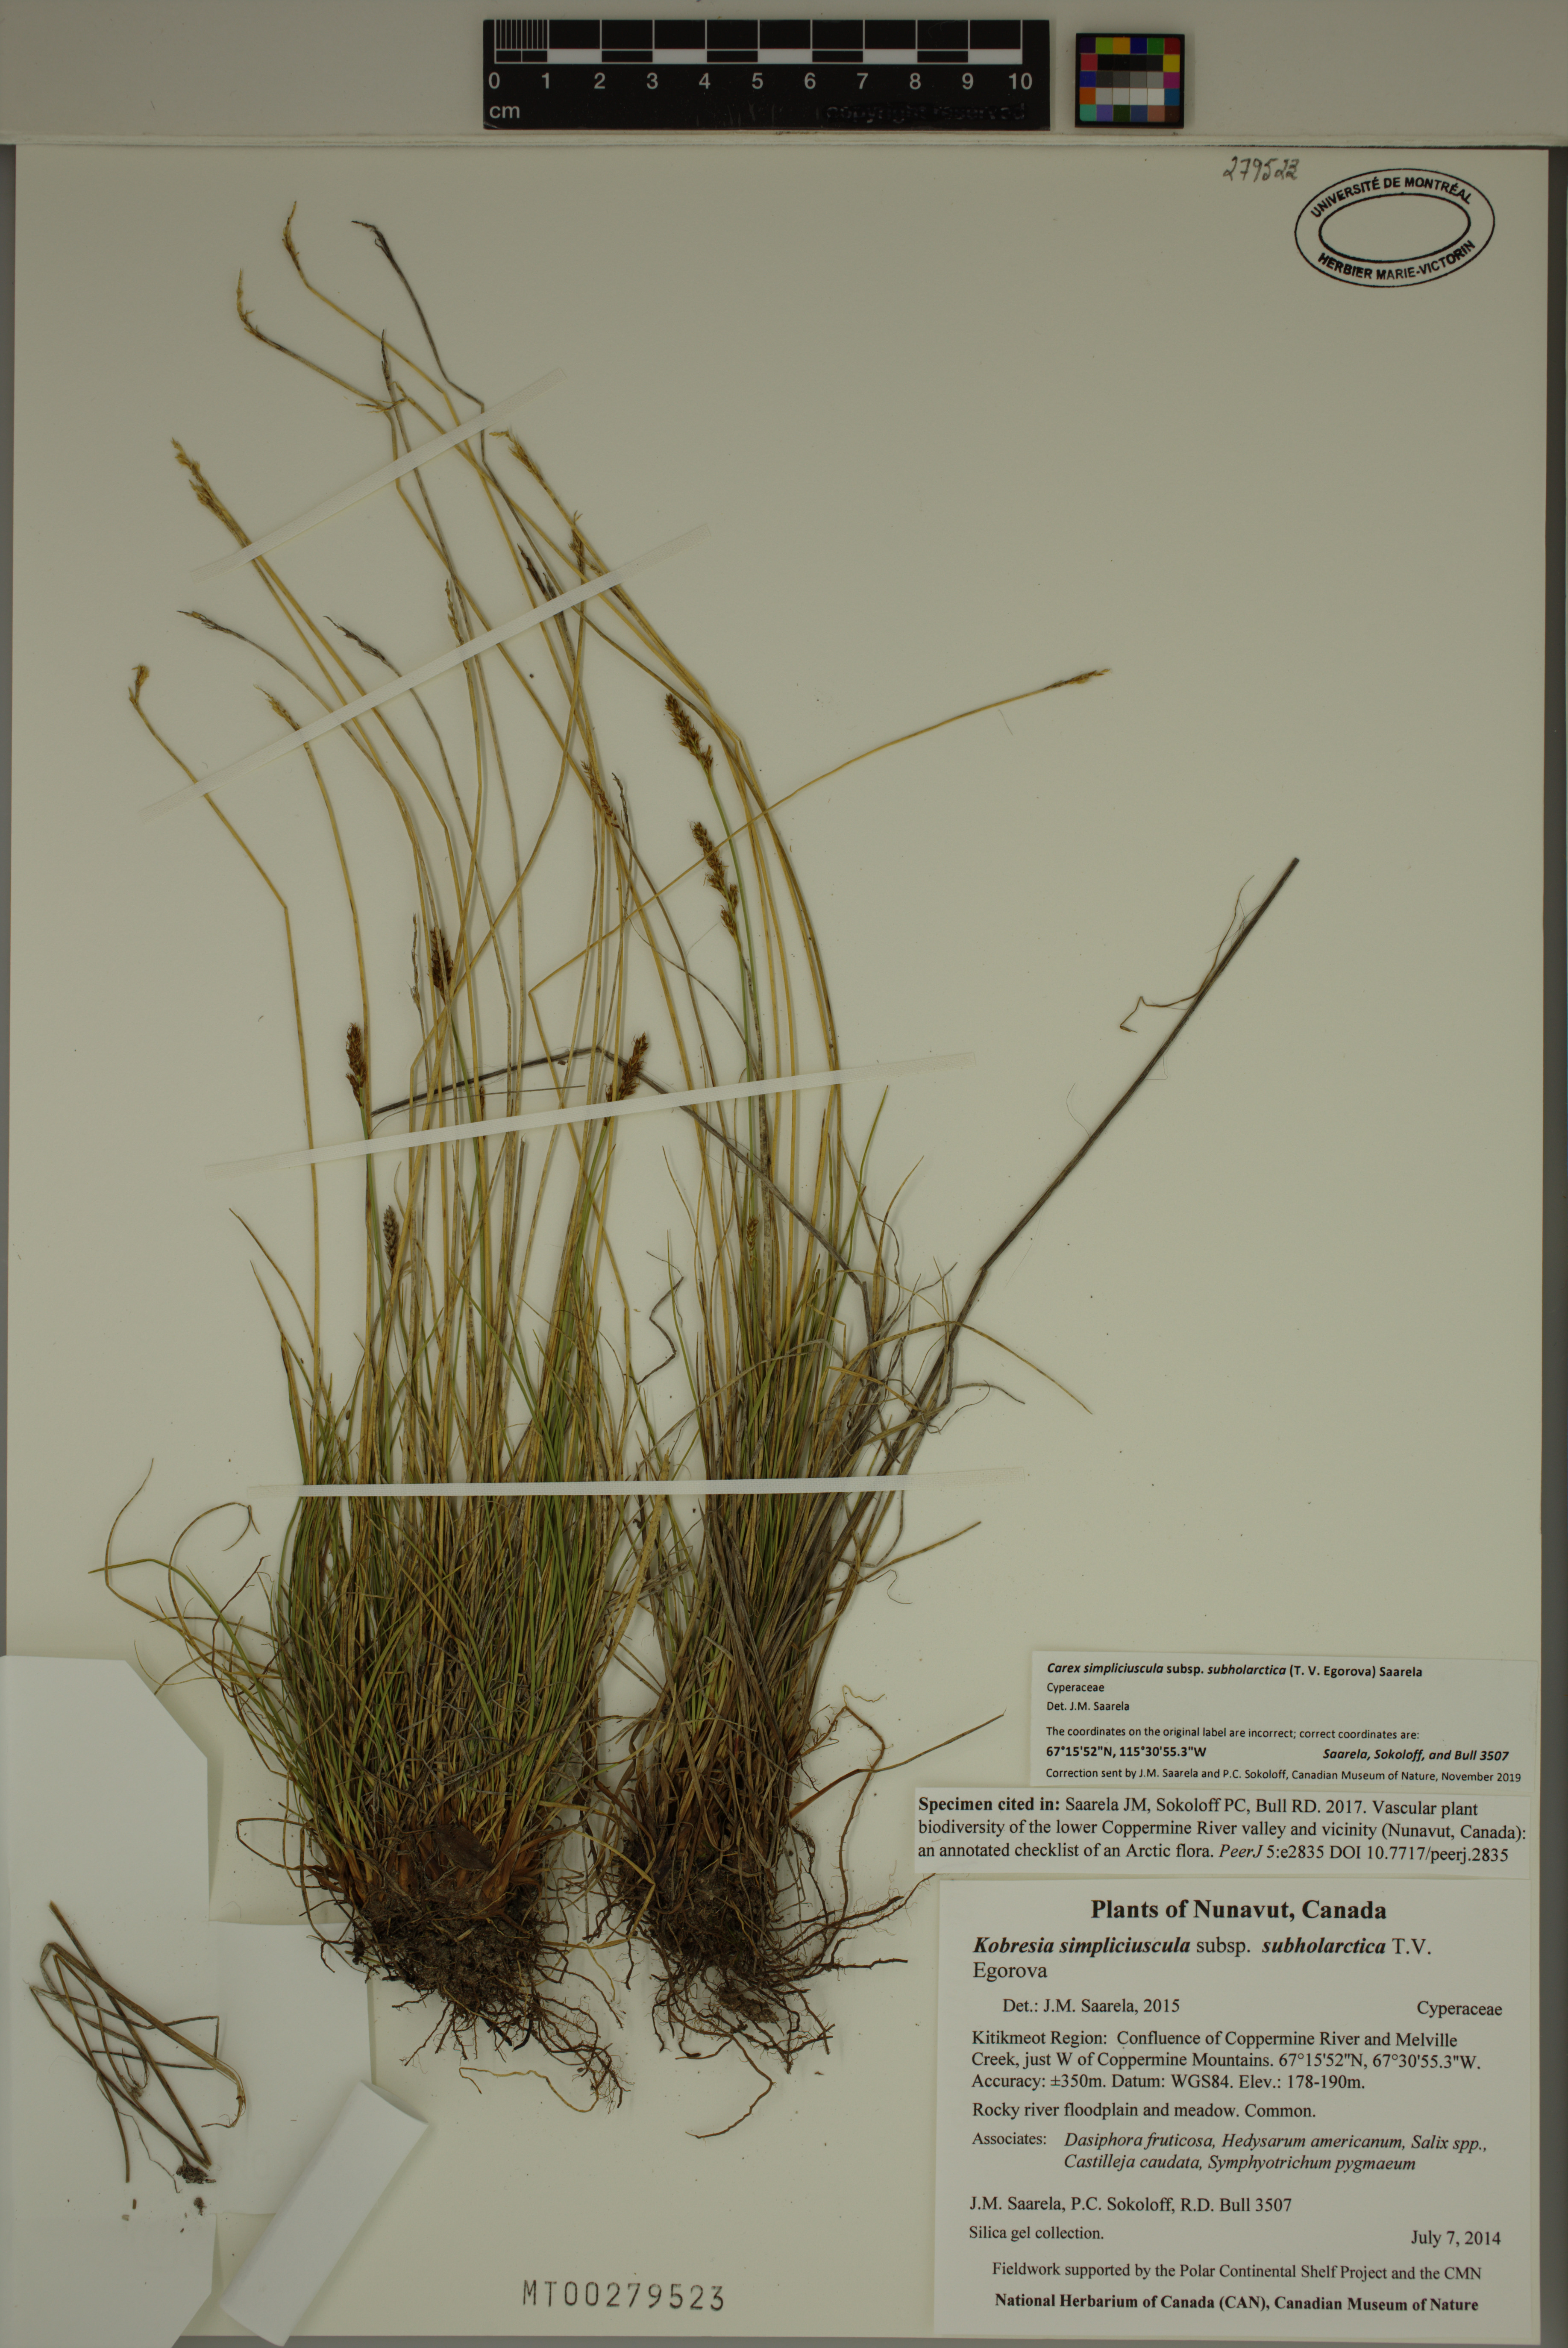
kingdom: Plantae
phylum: Tracheophyta
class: Liliopsida
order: Poales
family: Cyperaceae
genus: Carex
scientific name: Carex simpliciuscula
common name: Simple bog sedge
